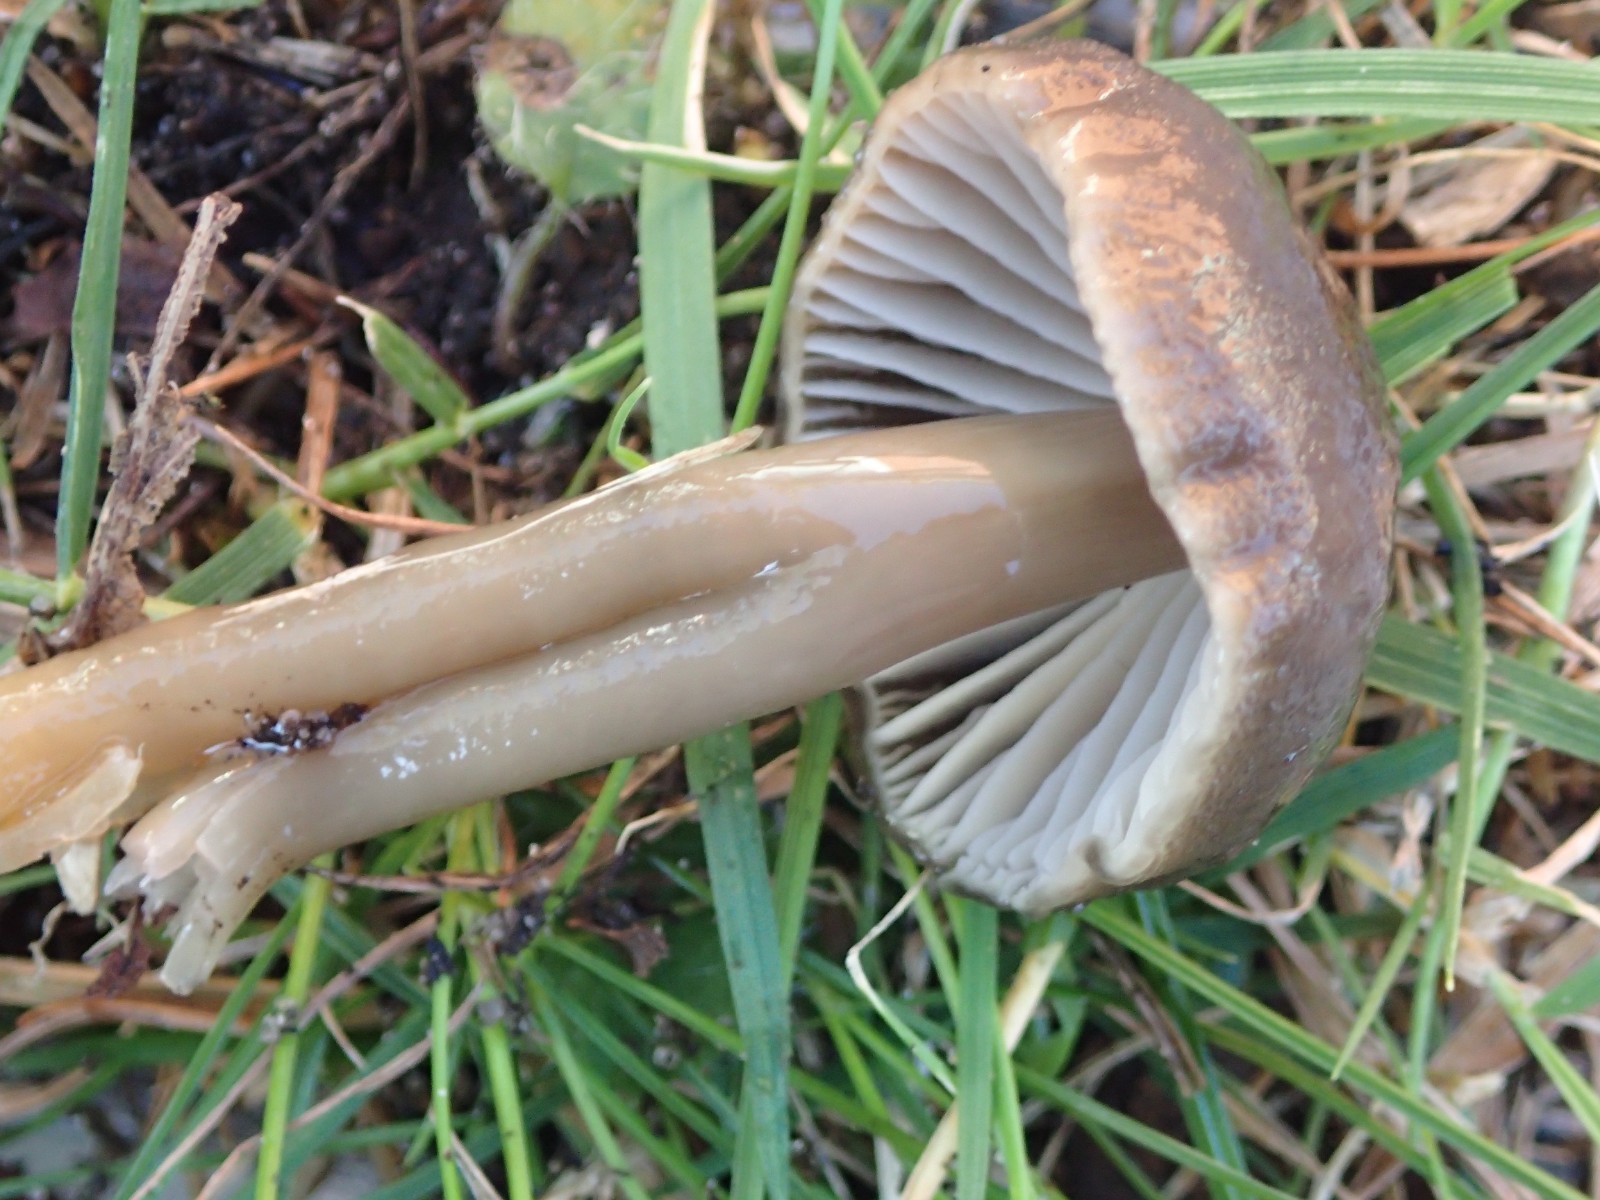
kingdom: Fungi
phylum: Basidiomycota
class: Agaricomycetes
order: Agaricales
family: Hygrophoraceae
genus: Gliophorus
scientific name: Gliophorus irrigatus
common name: slimet vokshat
